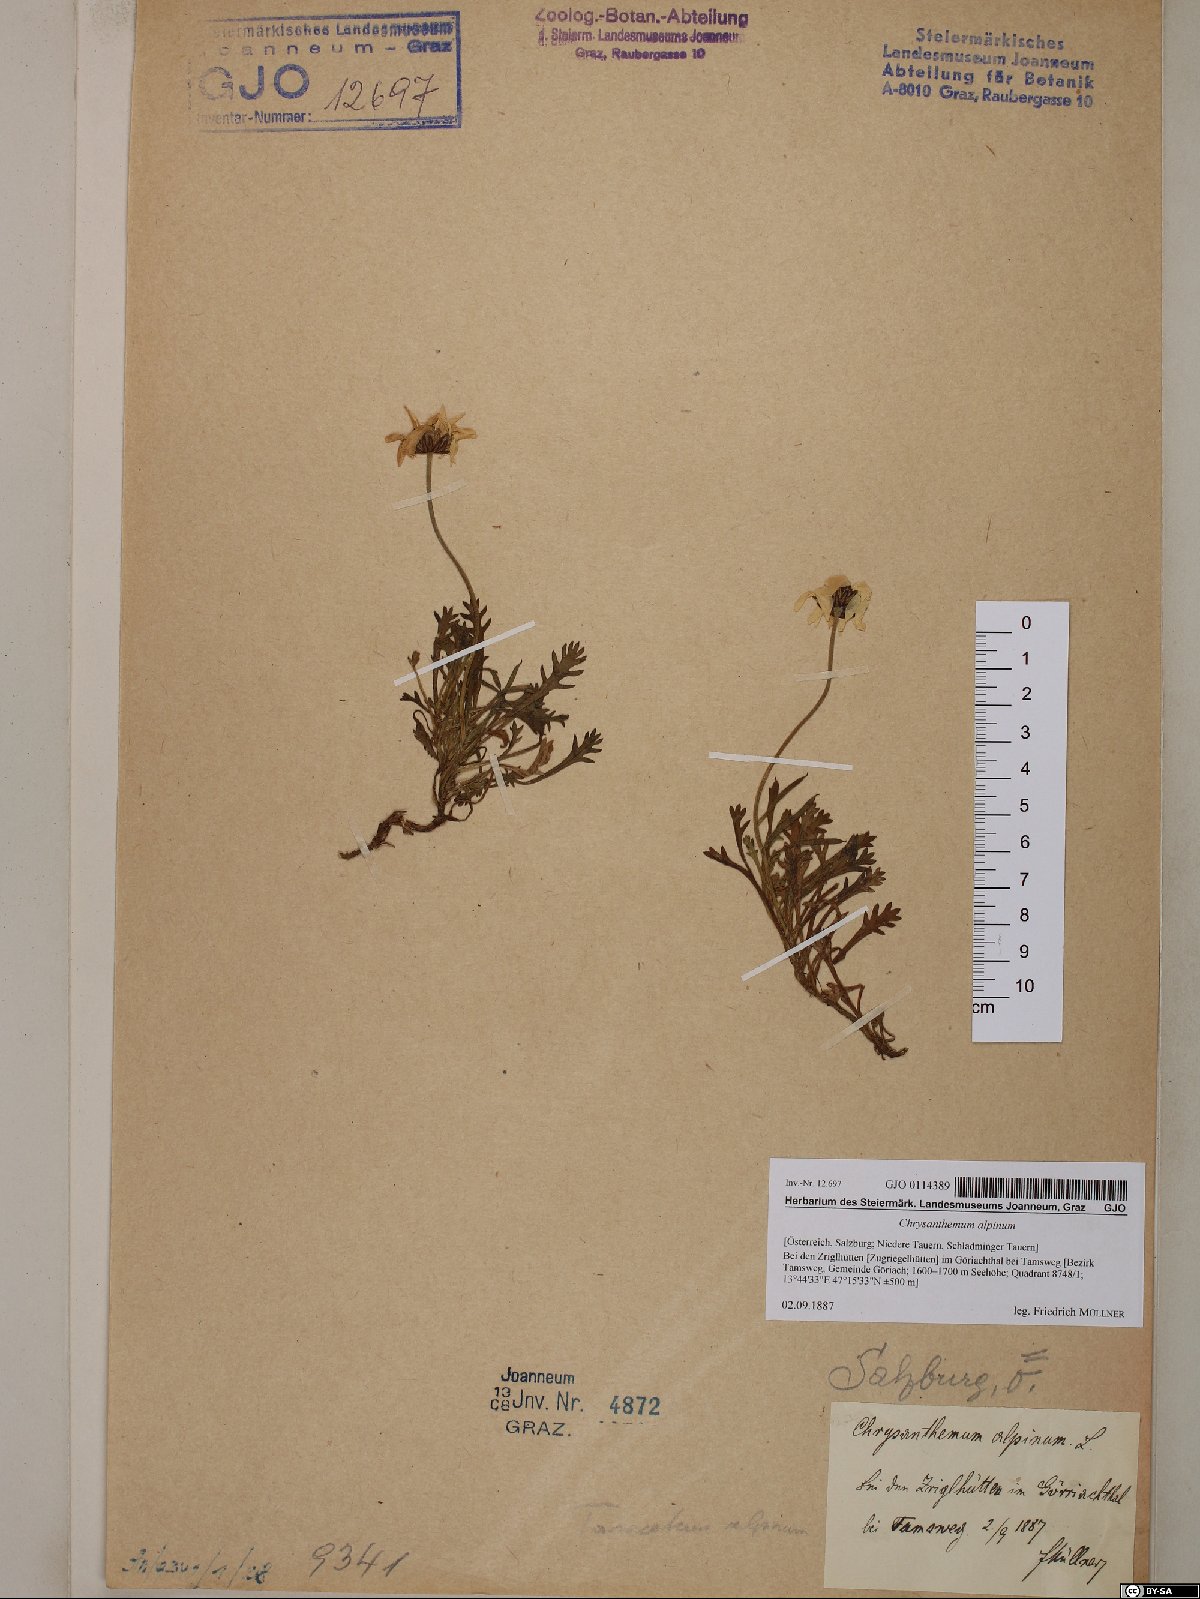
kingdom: Plantae
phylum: Tracheophyta
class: Magnoliopsida
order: Asterales
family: Asteraceae
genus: Leucanthemopsis
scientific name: Leucanthemopsis alpina
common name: Alpine moon daisy
